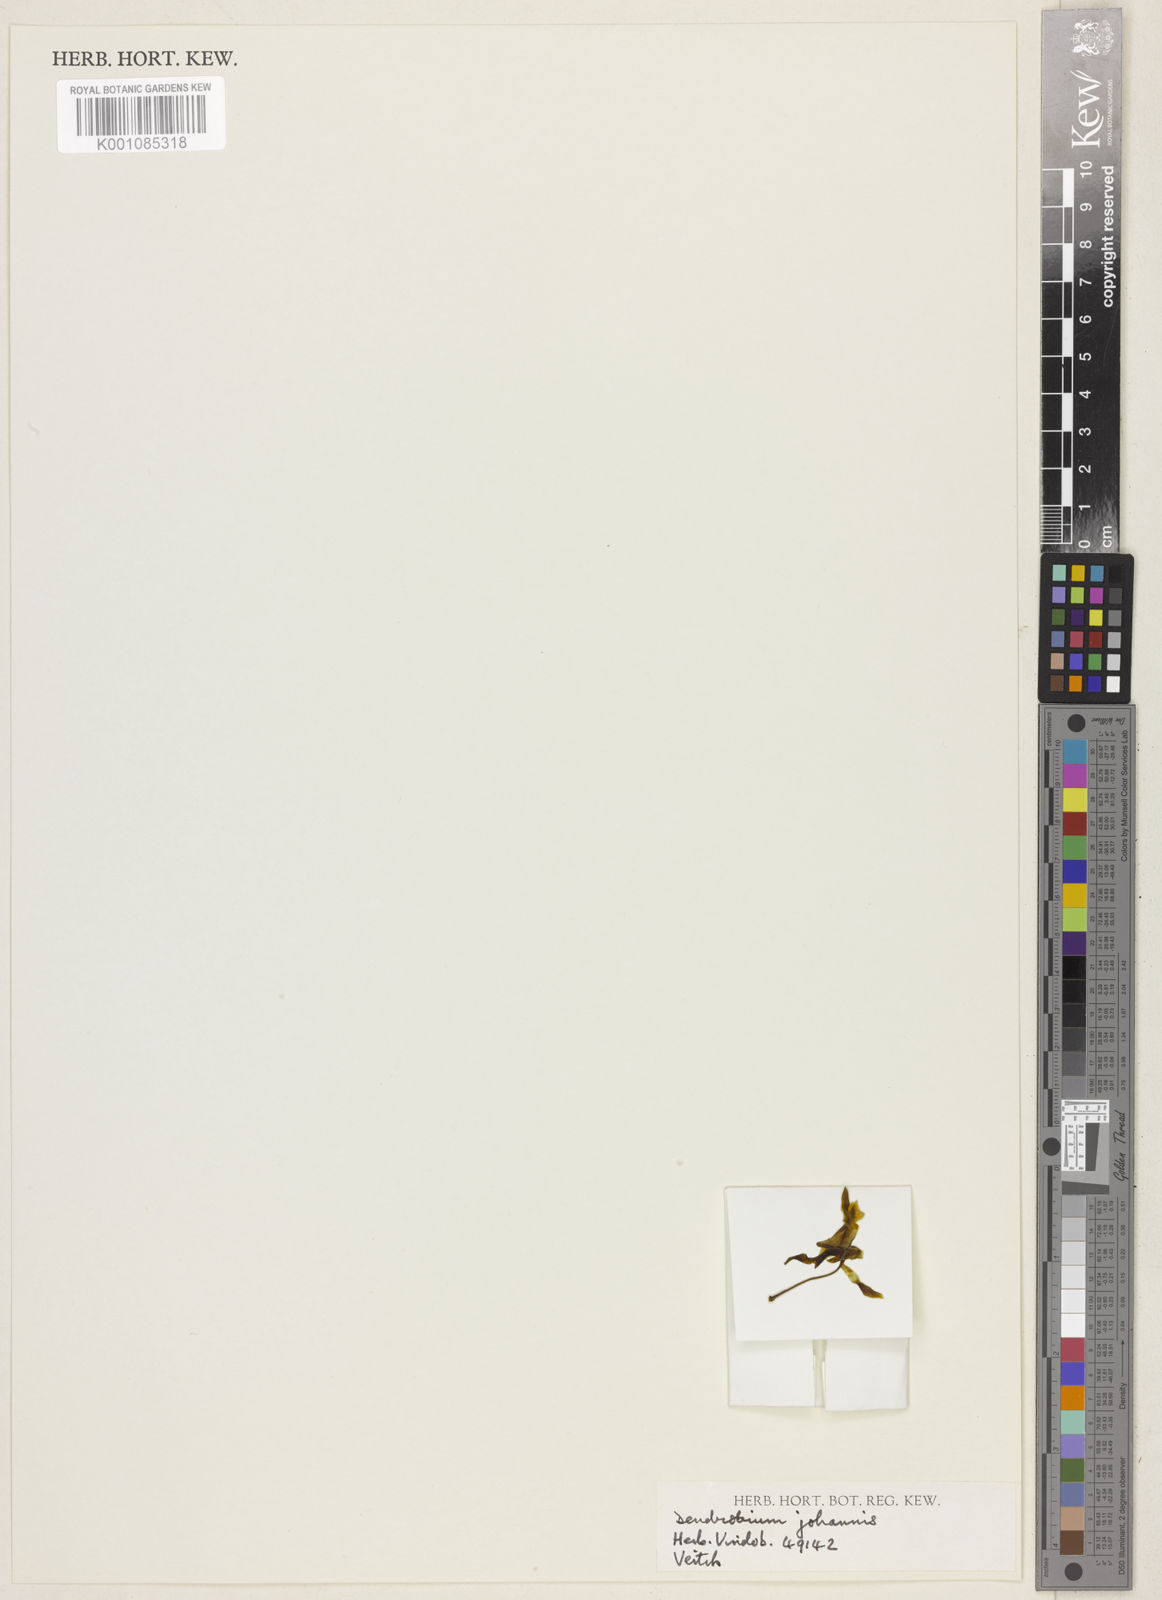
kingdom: Plantae
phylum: Tracheophyta
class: Liliopsida
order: Asparagales
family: Orchidaceae
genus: Dendrobium
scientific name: Dendrobium johannis
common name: Chocolate tea tree orchid
